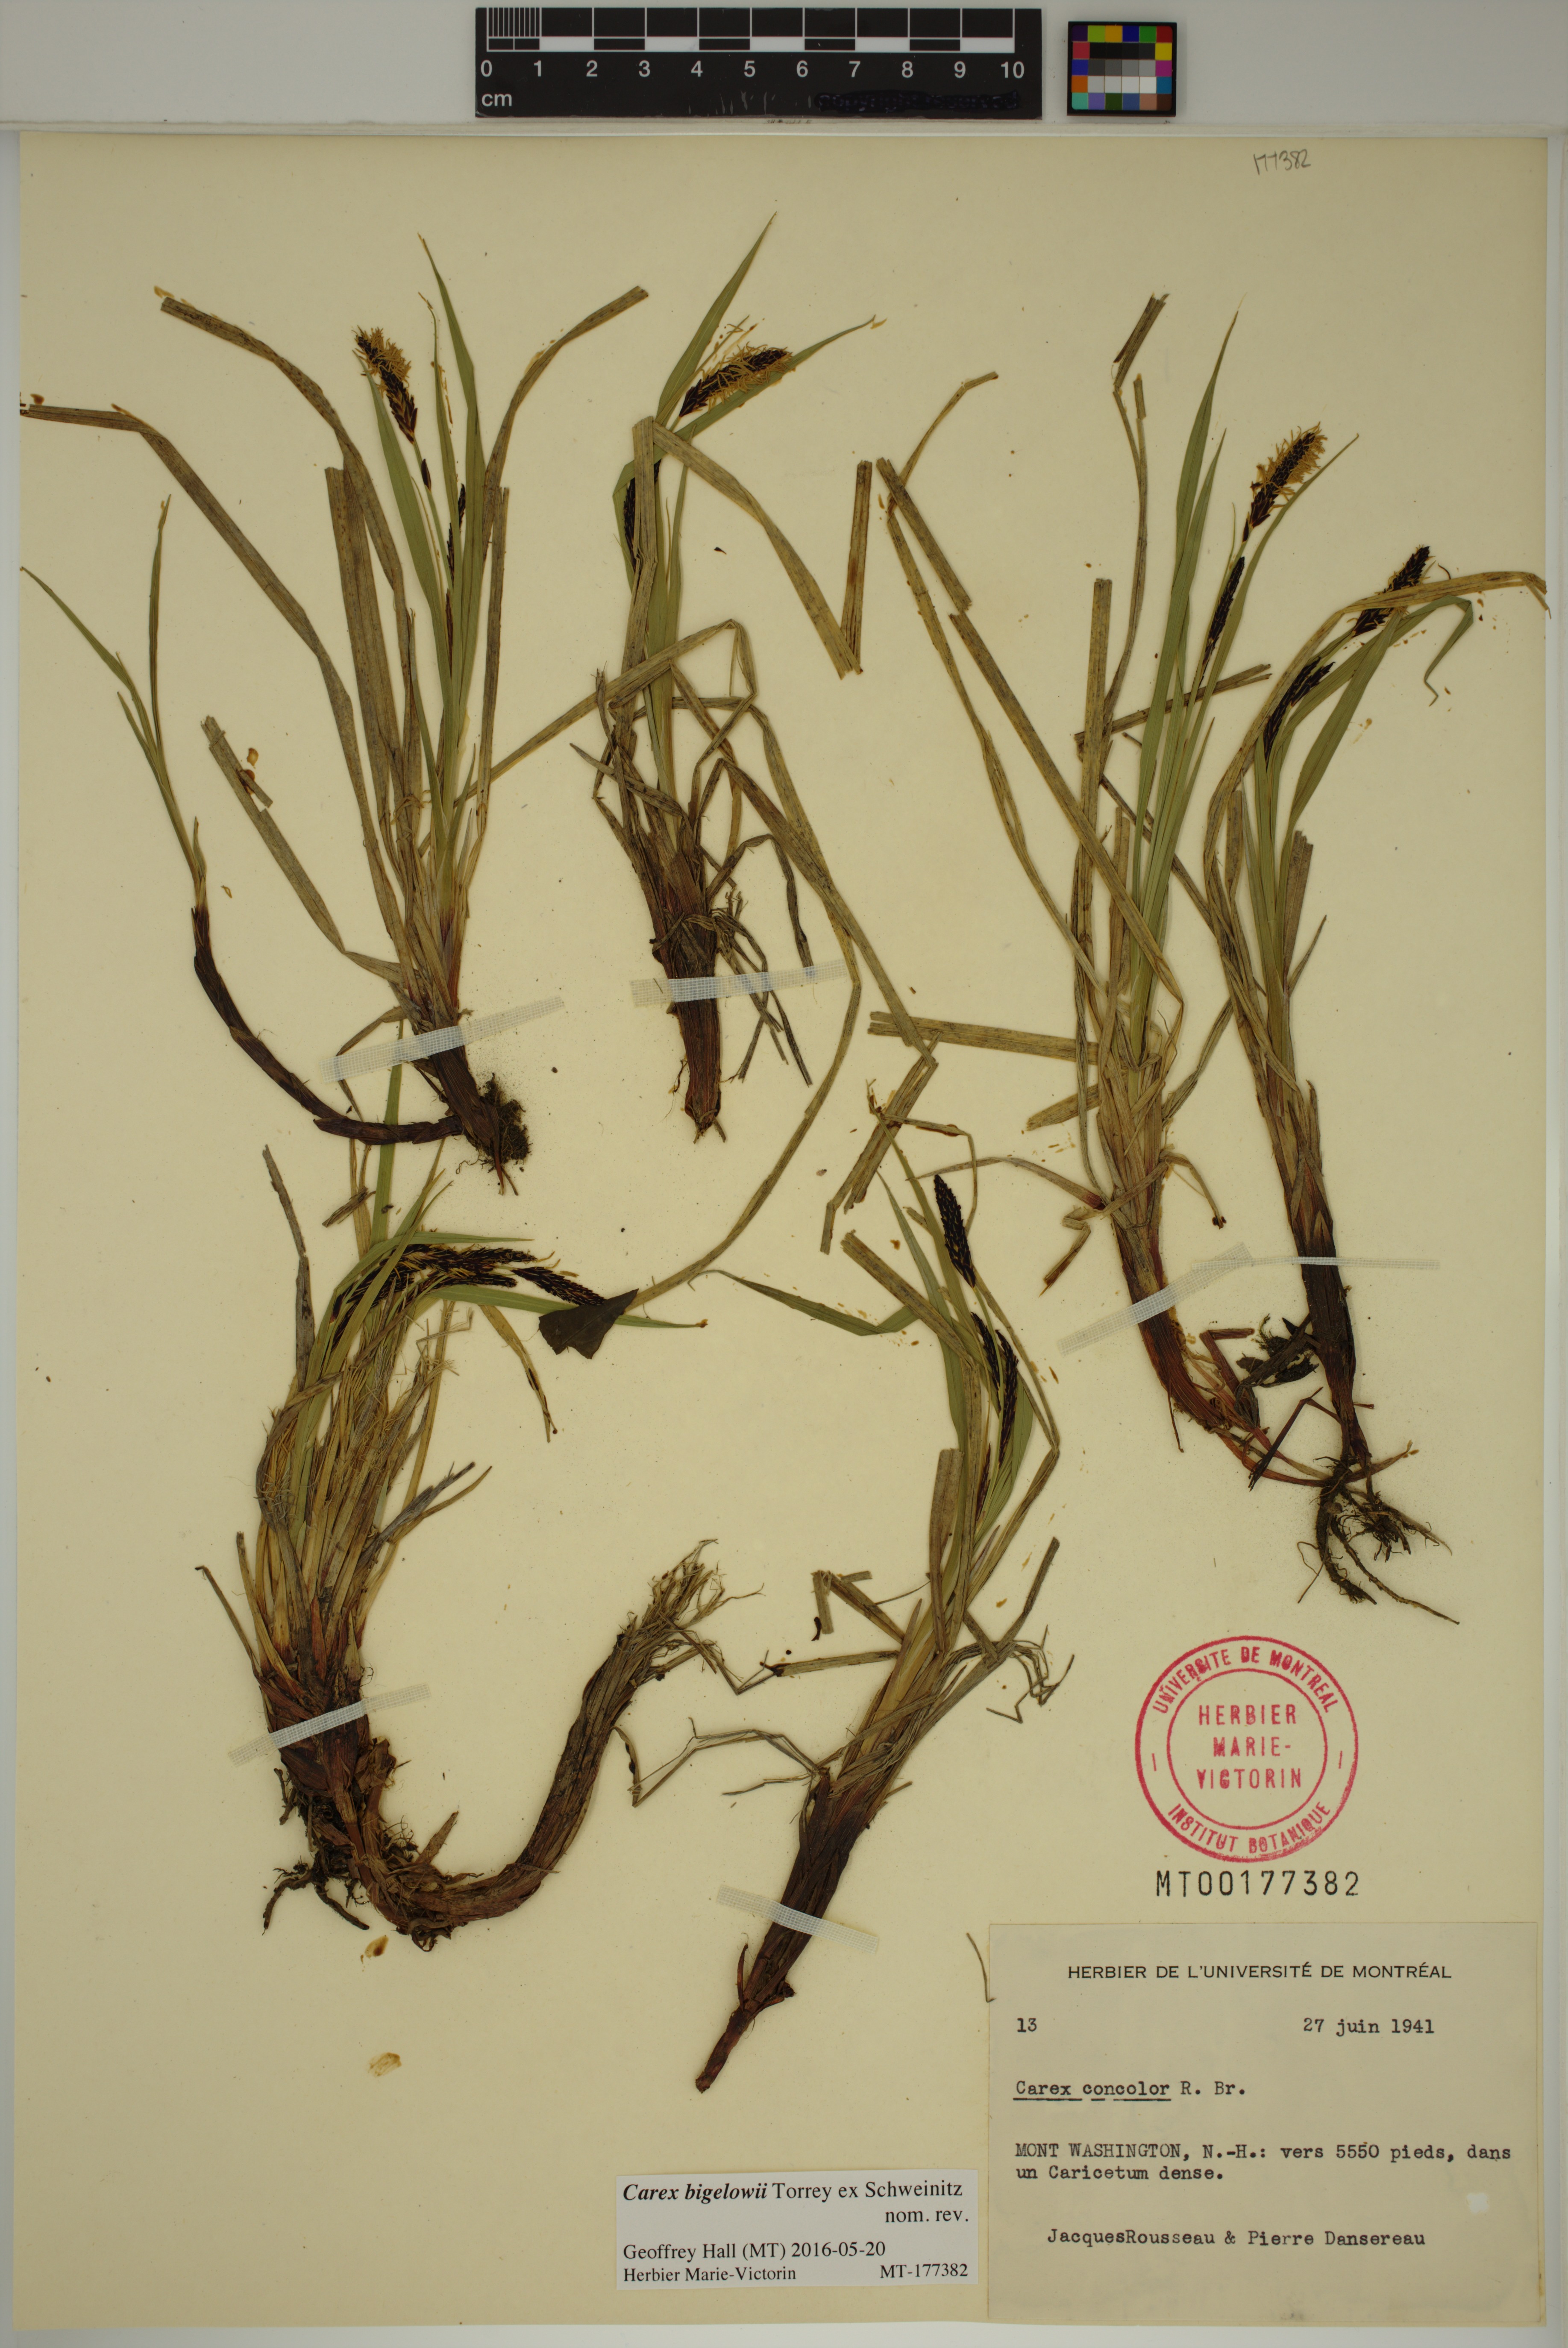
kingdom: Plantae
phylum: Tracheophyta
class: Liliopsida
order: Poales
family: Cyperaceae
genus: Carex
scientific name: Carex bigelowii
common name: Stiff sedge
